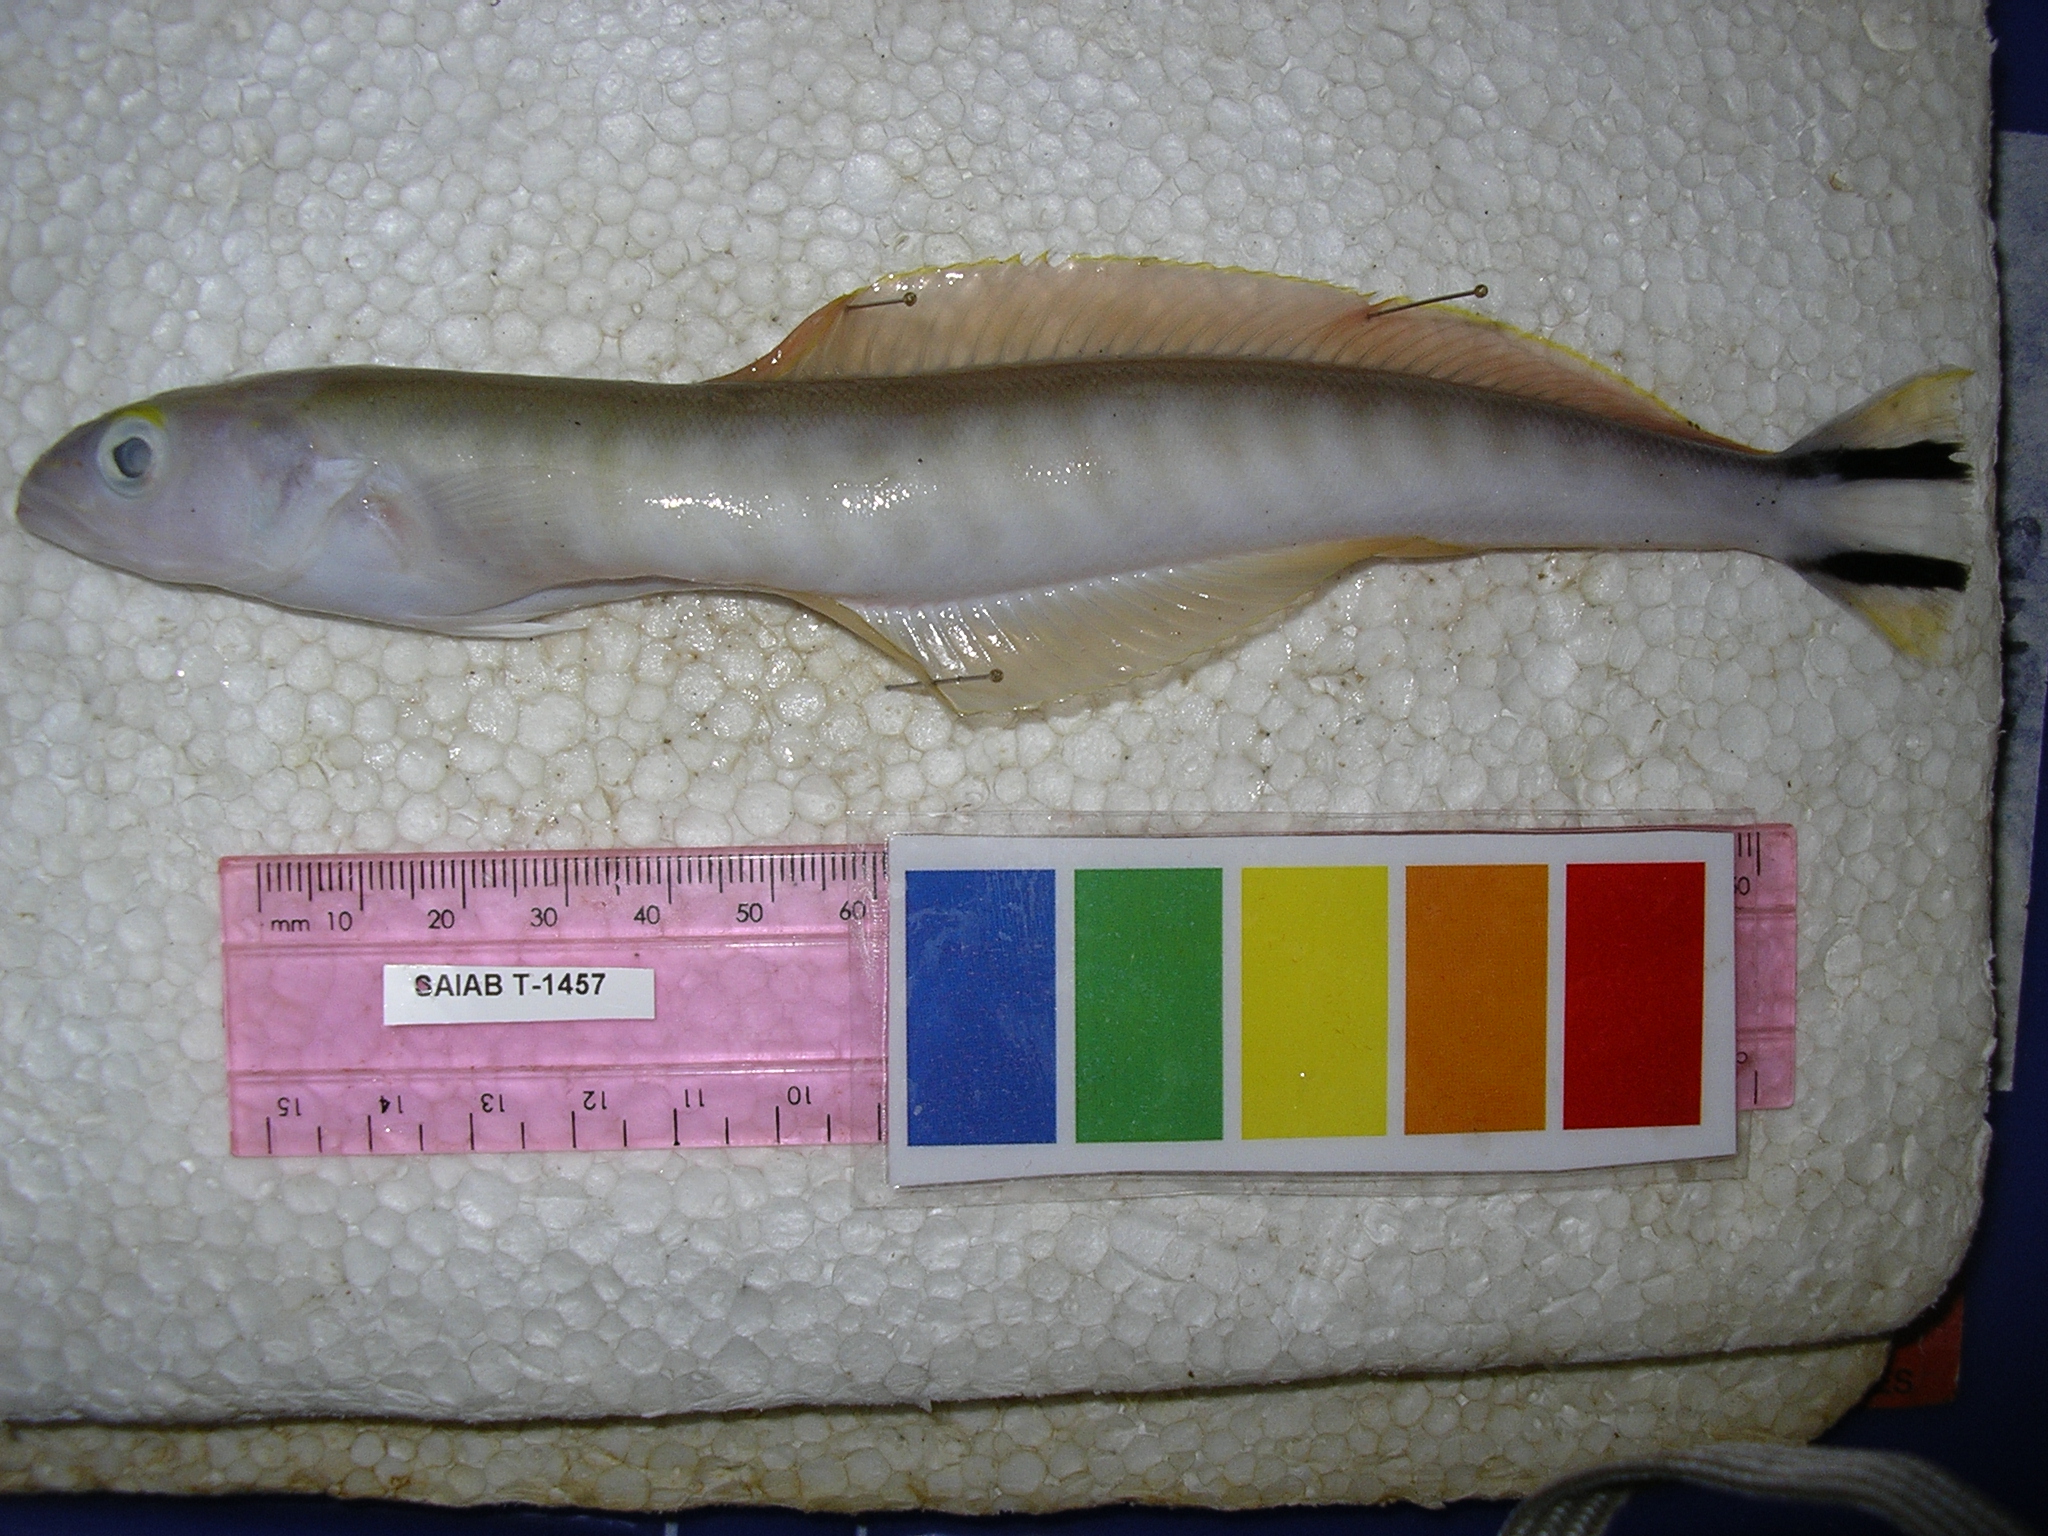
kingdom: Animalia
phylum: Chordata
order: Perciformes
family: Malacanthidae
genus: Malacanthus
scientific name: Malacanthus brevirostris
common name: Flagtail blanquillo
